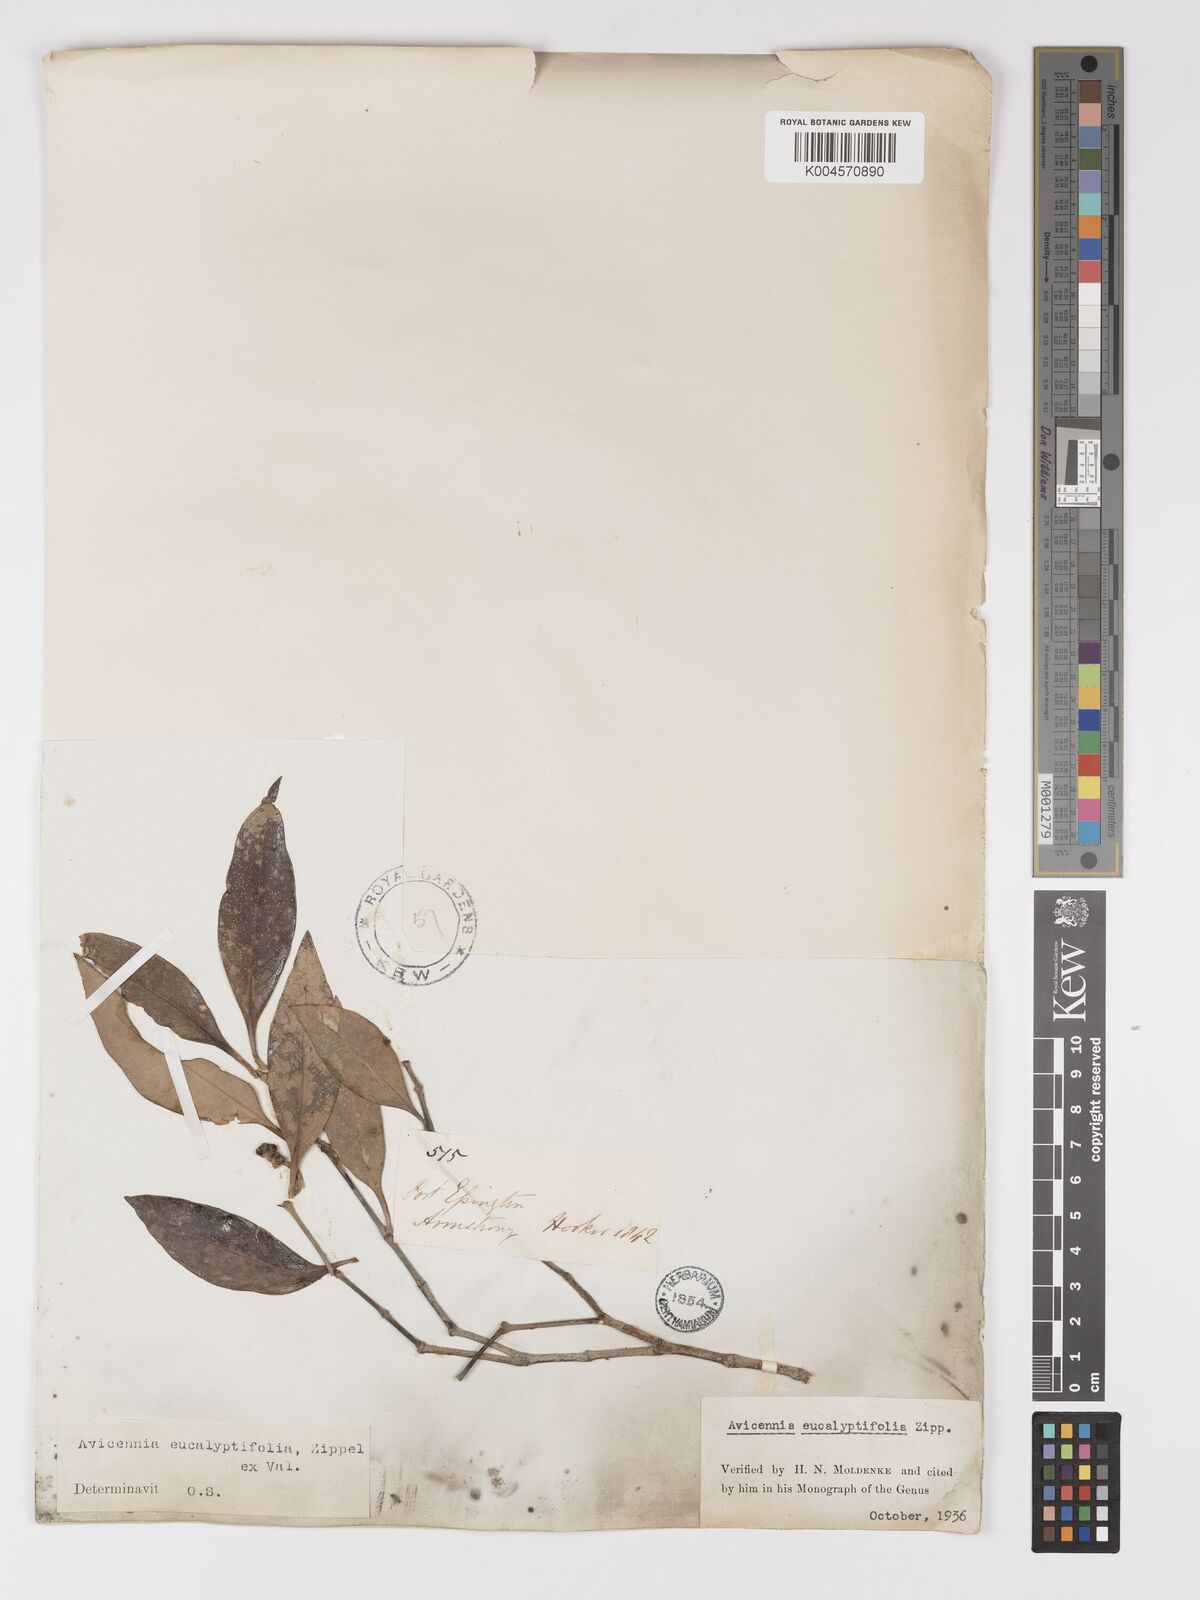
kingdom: Plantae
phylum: Tracheophyta
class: Magnoliopsida
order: Lamiales
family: Acanthaceae
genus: Avicennia
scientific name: Avicennia marina
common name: Gray mangrove
